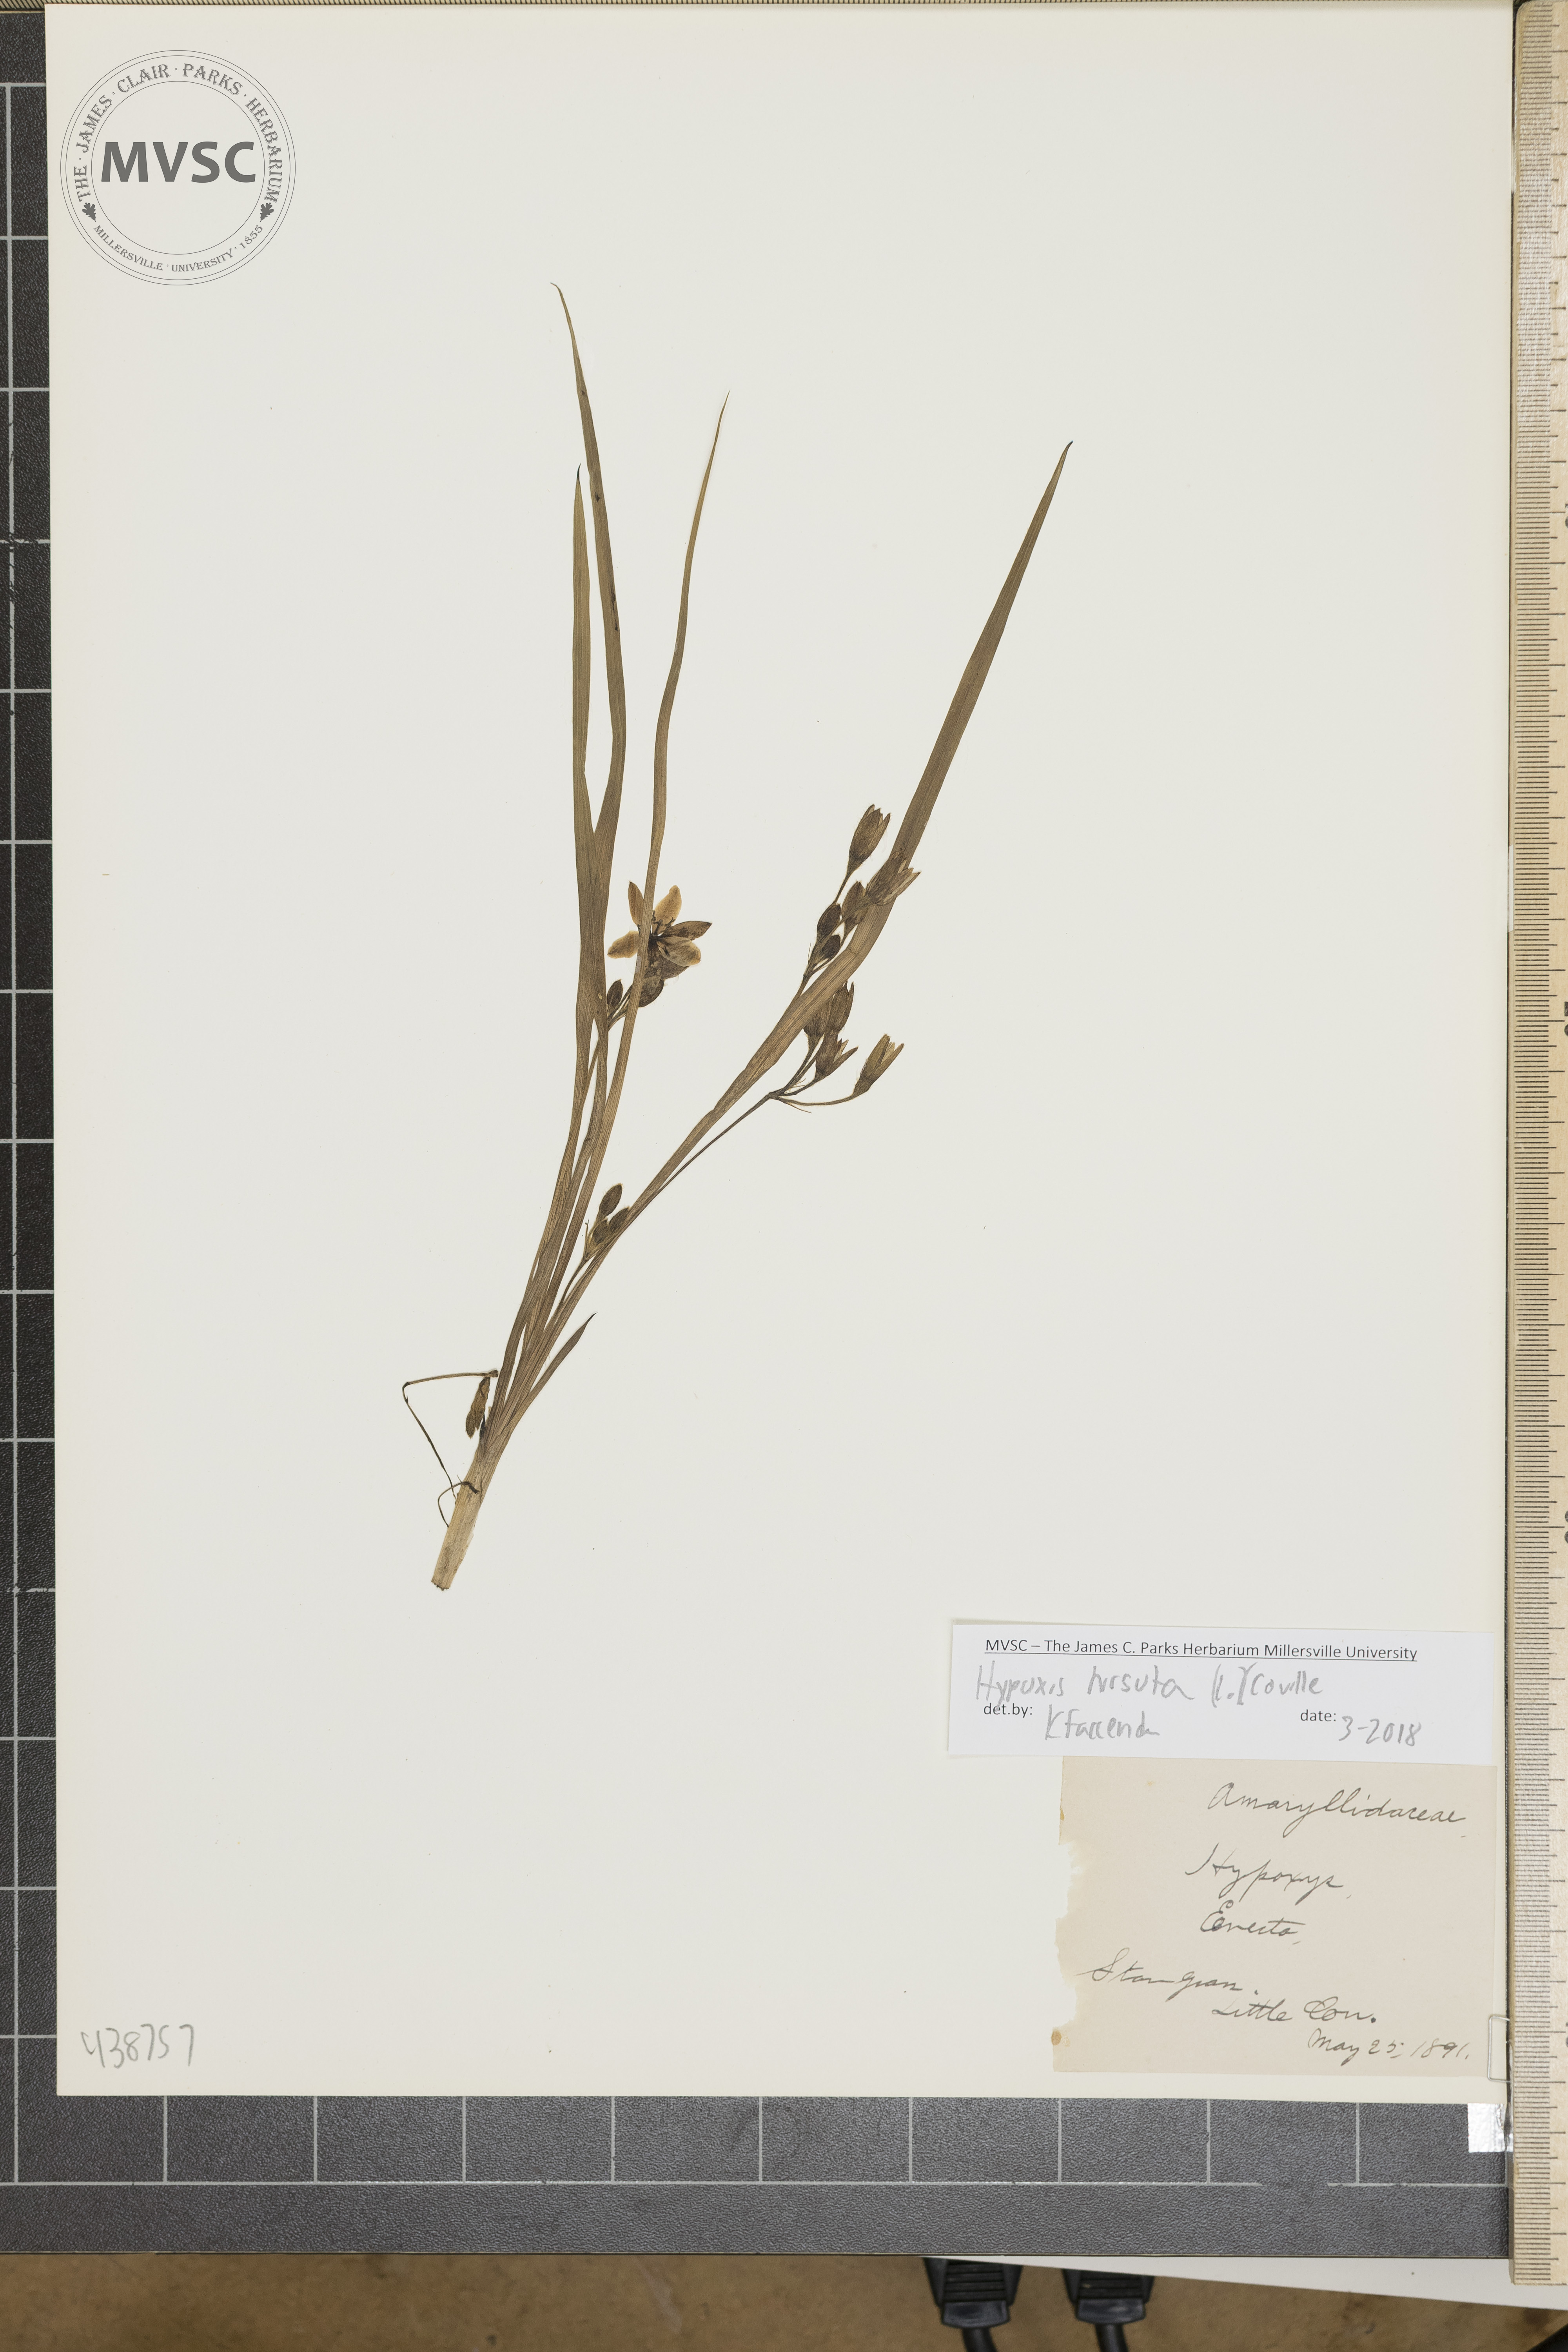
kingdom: Plantae
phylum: Tracheophyta
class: Liliopsida
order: Asparagales
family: Hypoxidaceae
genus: Hypoxis
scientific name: Hypoxis hirsuta
